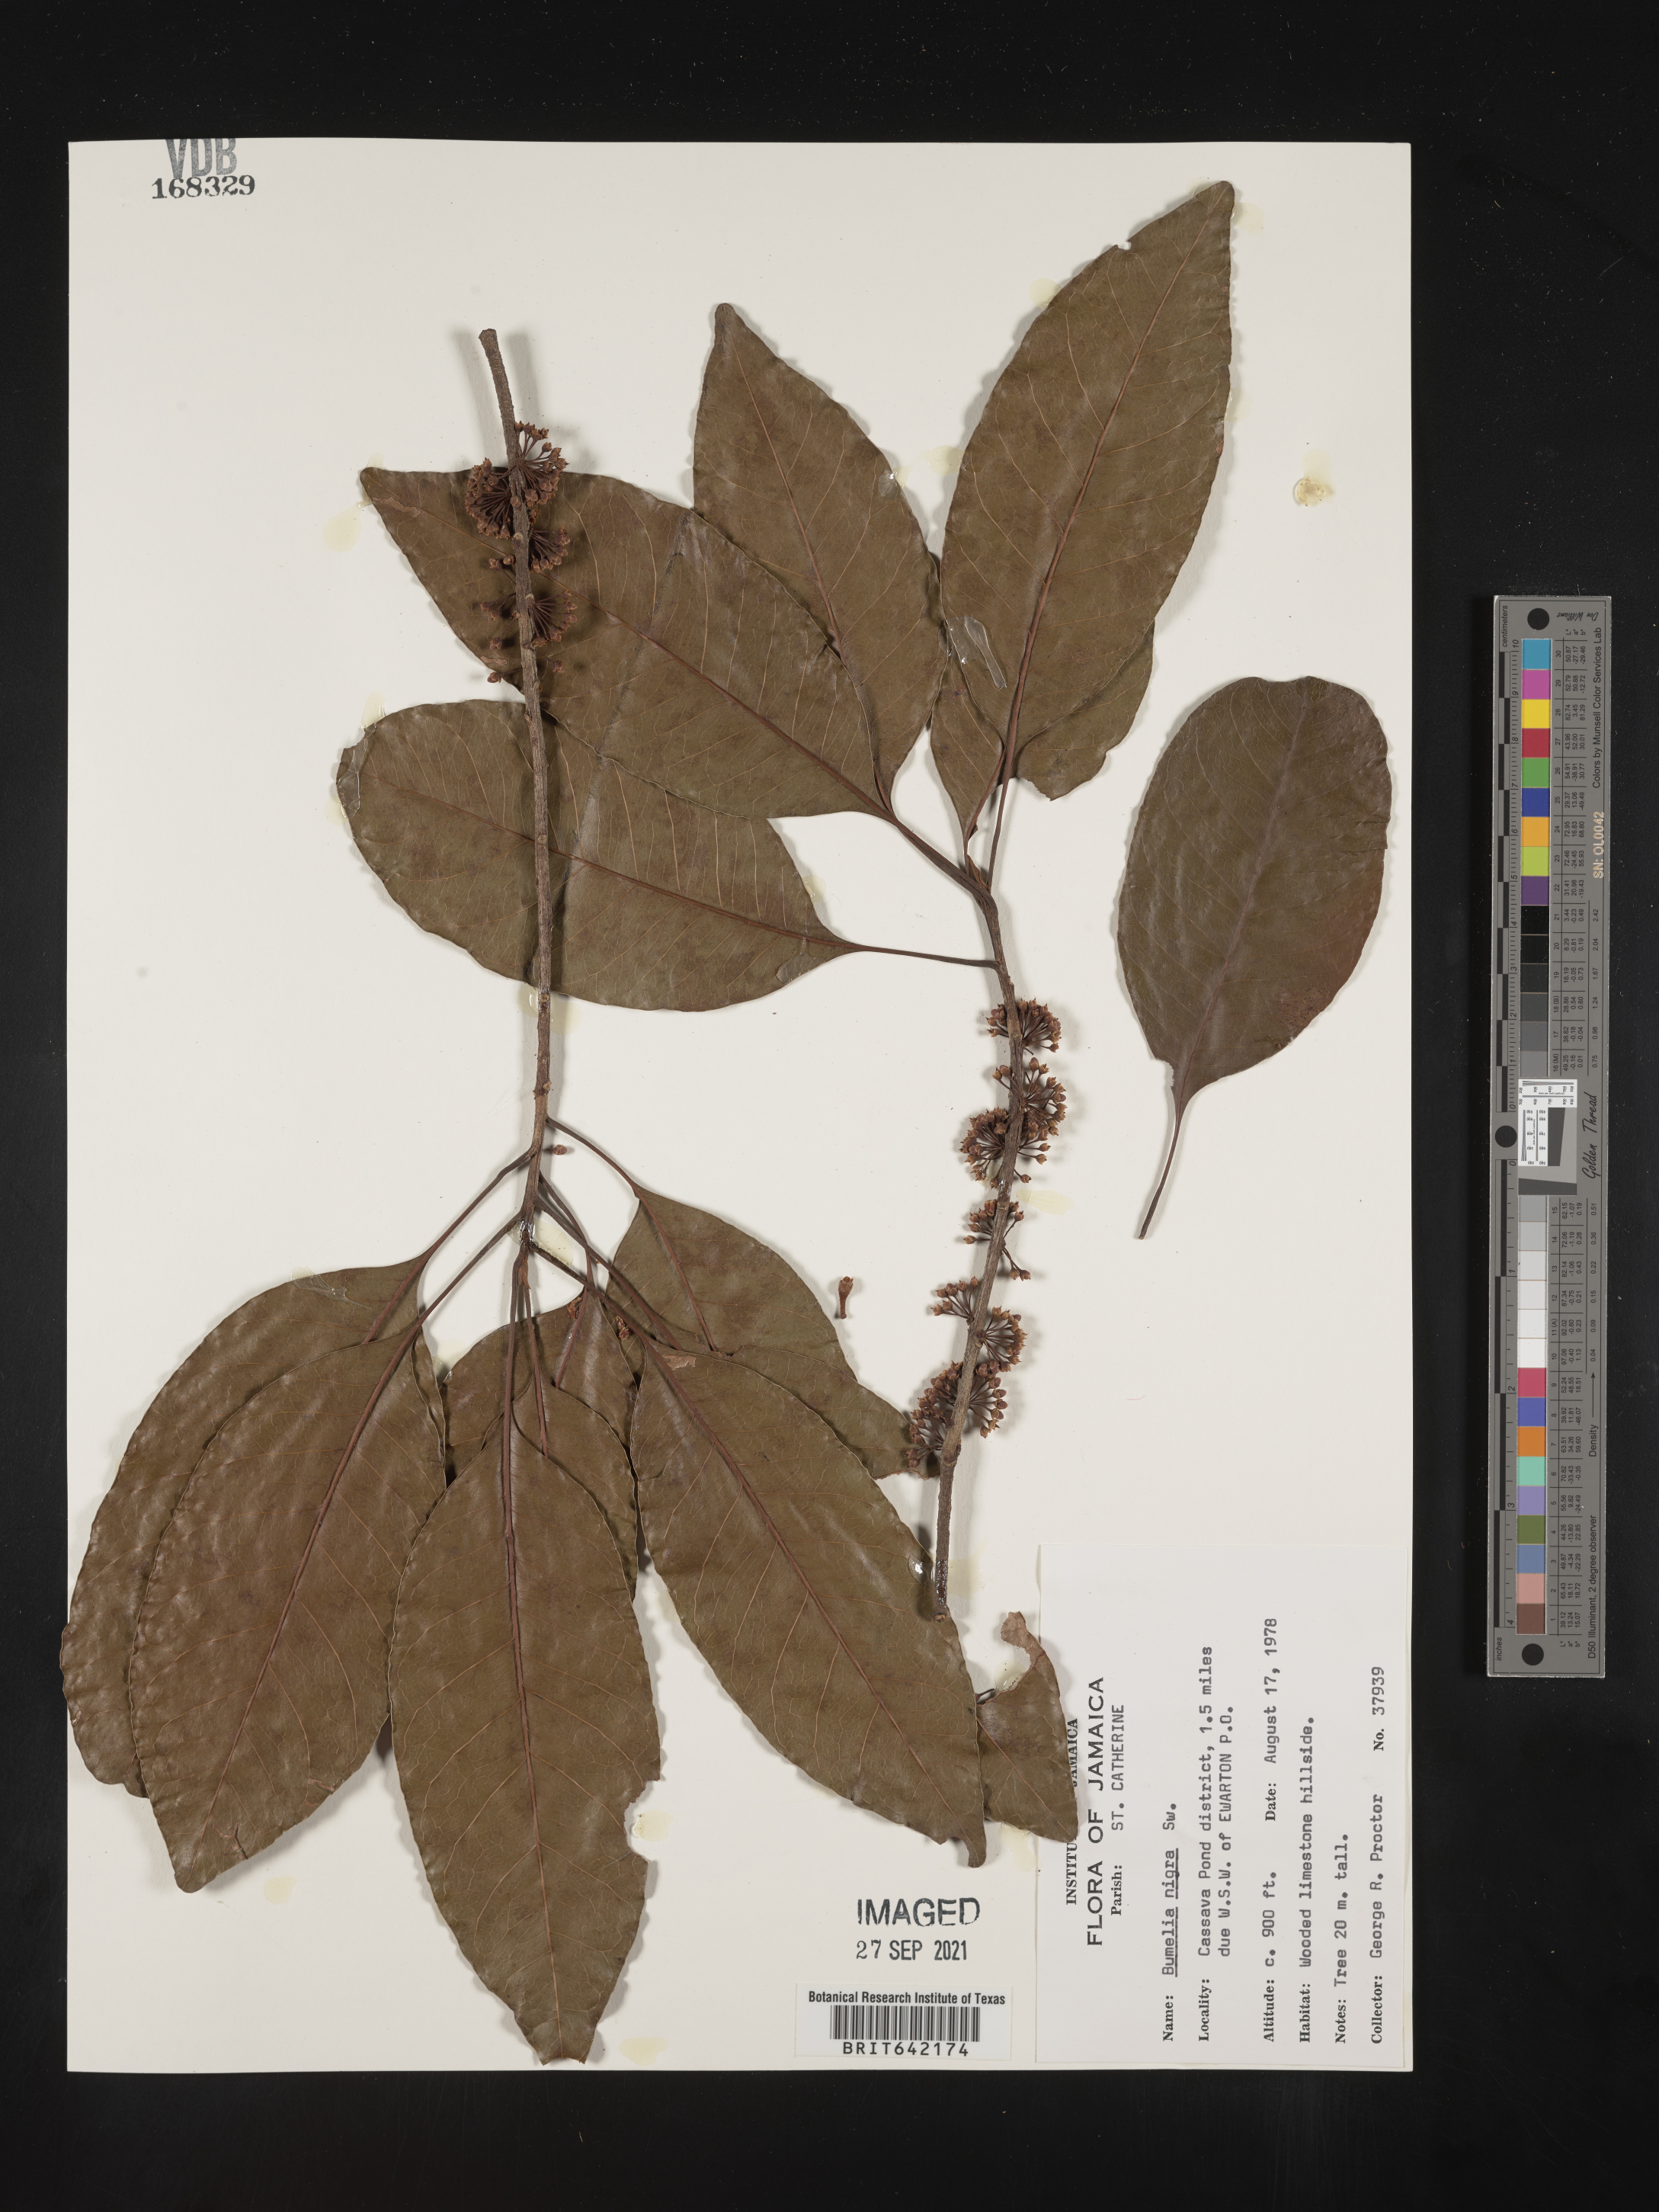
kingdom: Plantae
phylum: Tracheophyta
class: Magnoliopsida
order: Ericales
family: Sapotaceae
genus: Sideroxylon
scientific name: Sideroxylon
